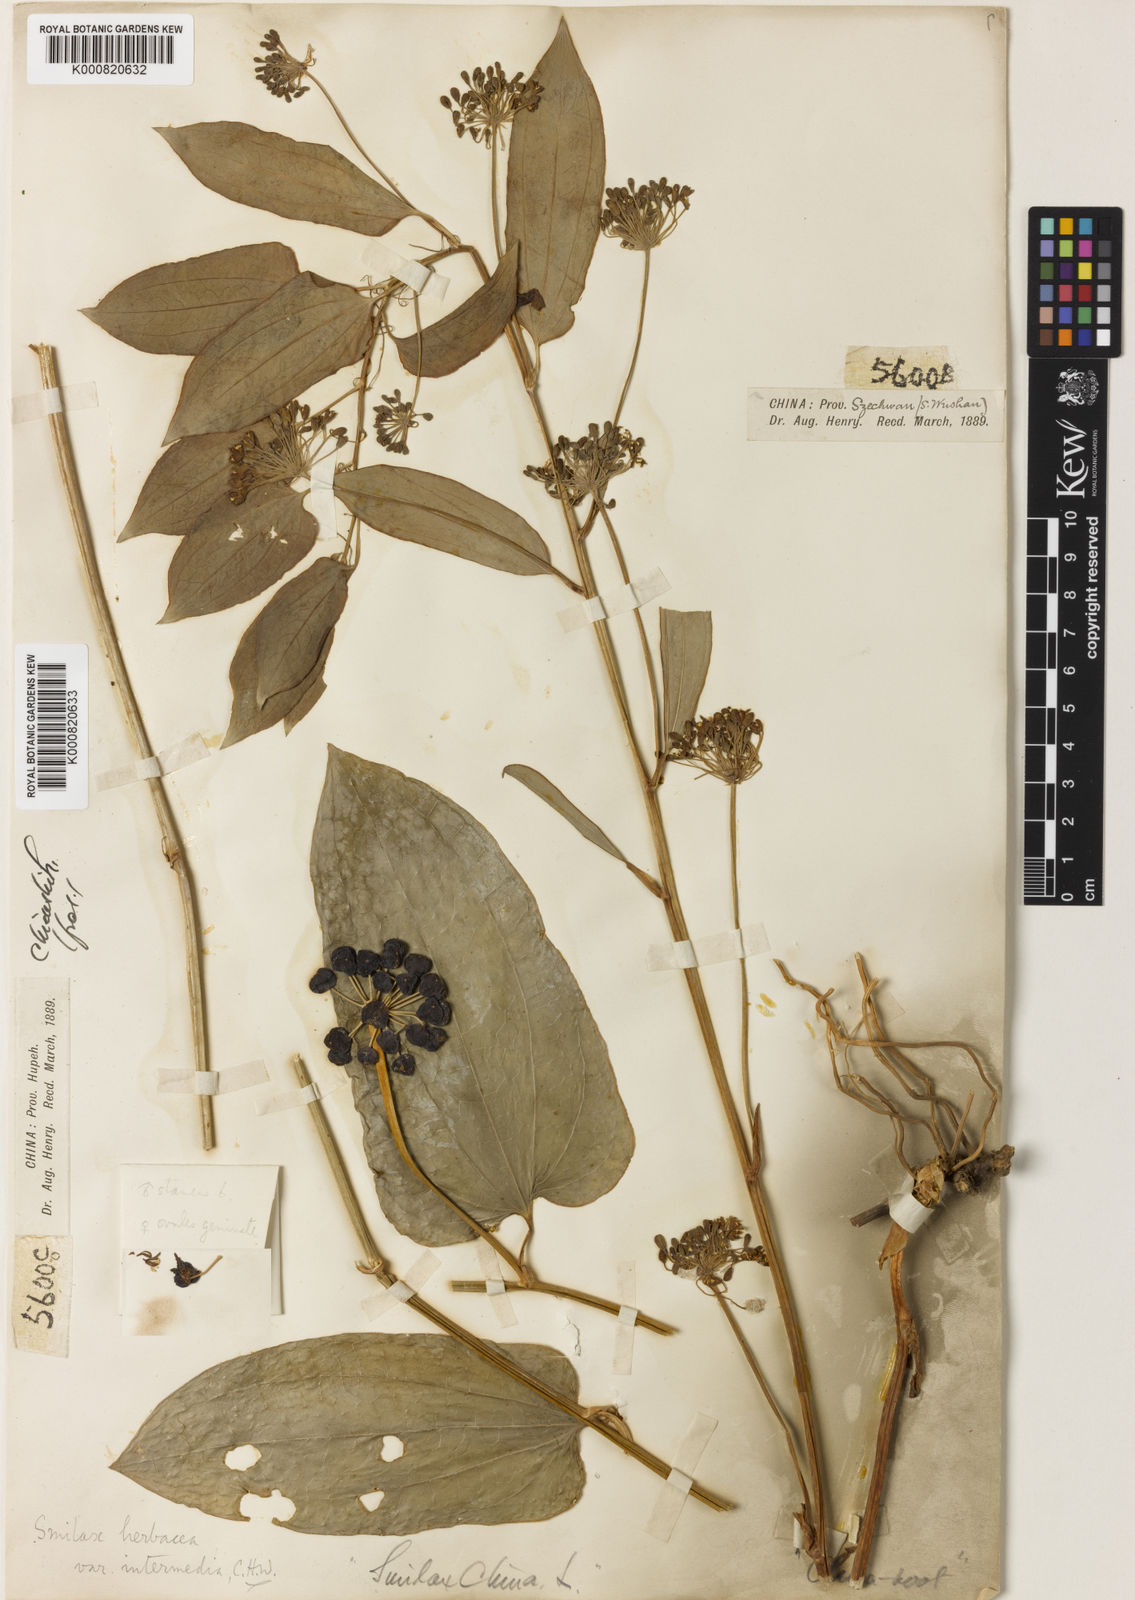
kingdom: Plantae
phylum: Tracheophyta
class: Liliopsida
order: Liliales
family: Smilacaceae
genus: Smilax
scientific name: Smilax nipponica
